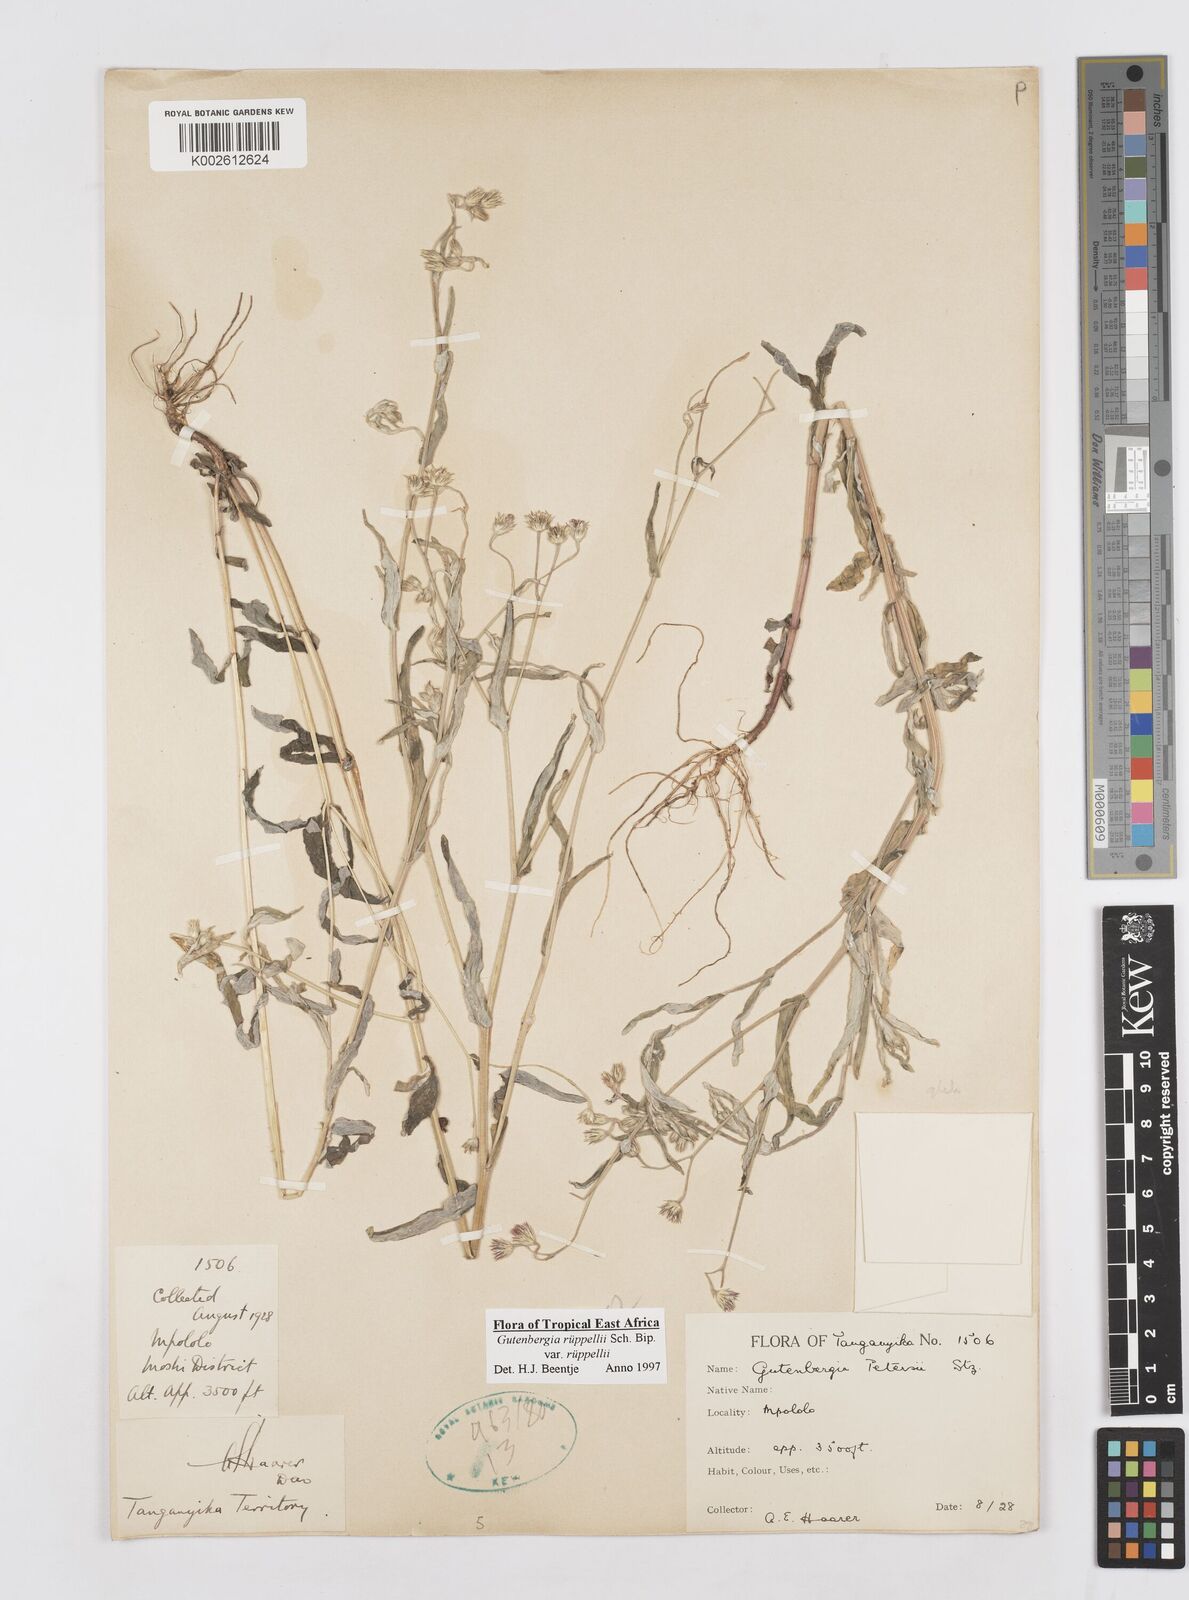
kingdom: Plantae
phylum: Tracheophyta
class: Magnoliopsida
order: Asterales
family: Asteraceae
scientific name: Asteraceae
